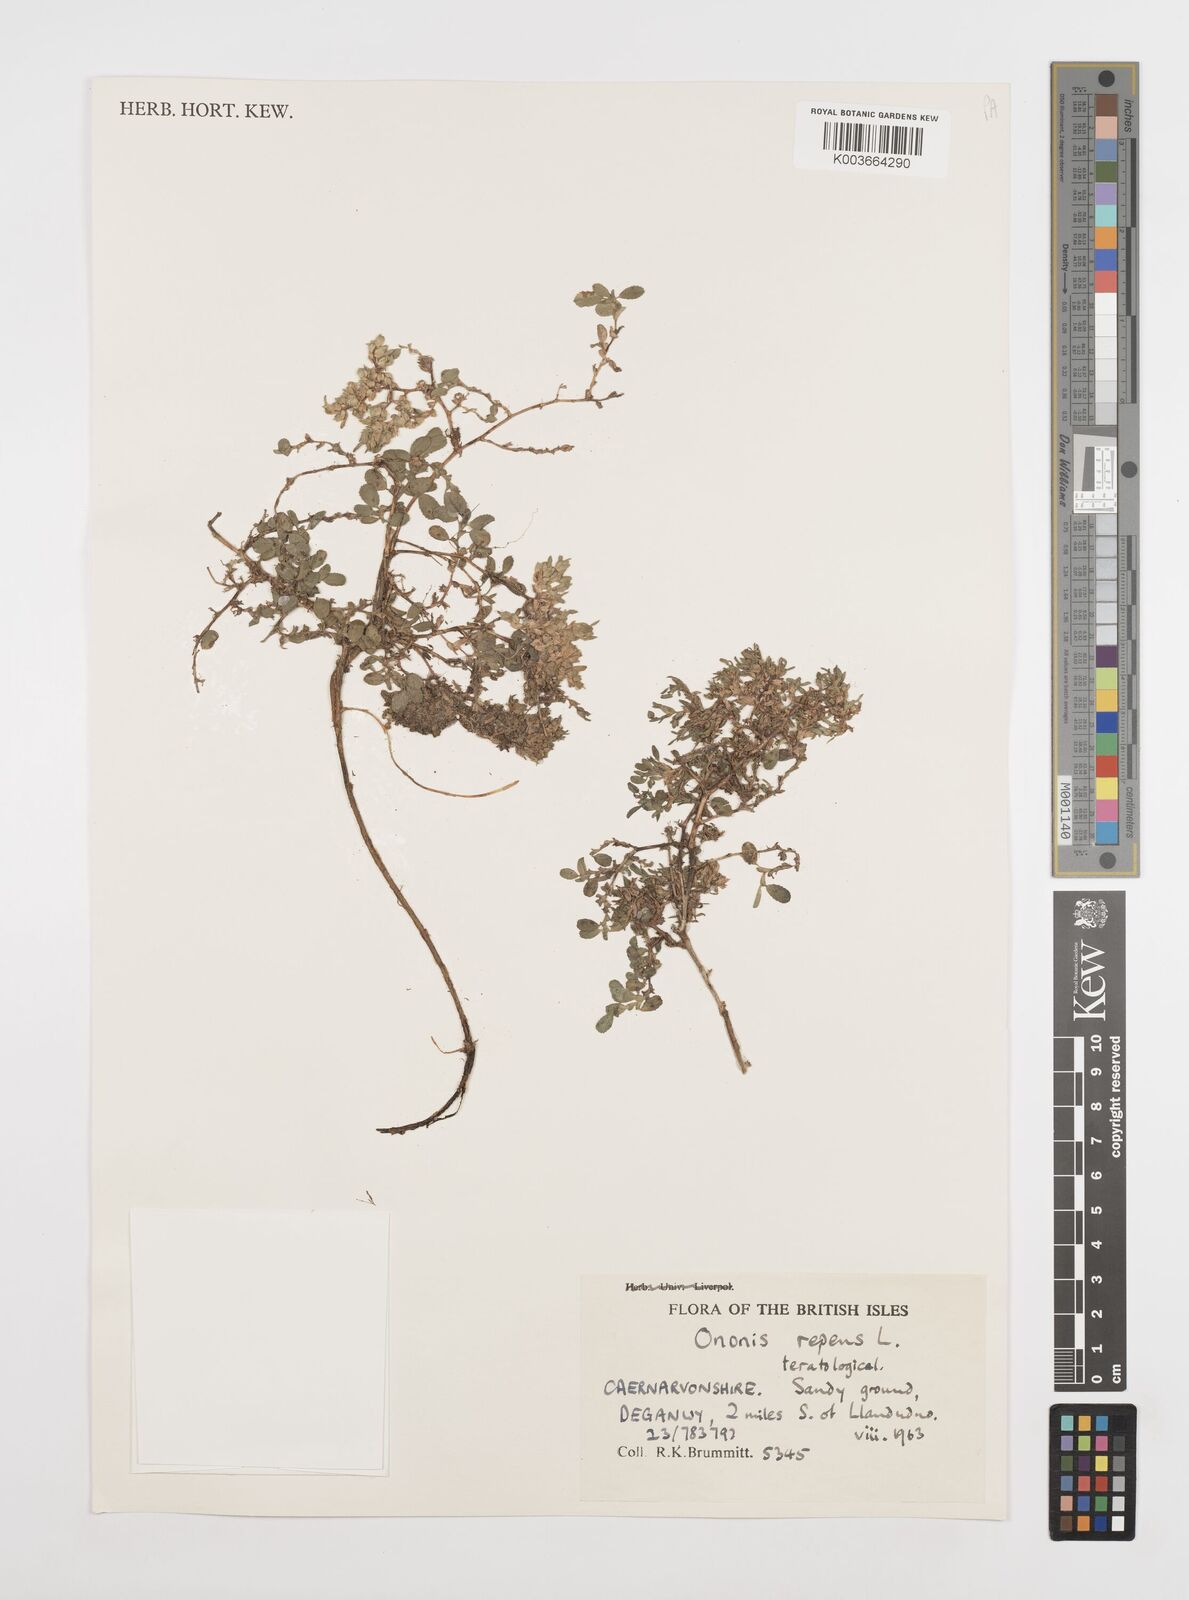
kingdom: Plantae
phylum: Tracheophyta
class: Magnoliopsida
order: Fabales
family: Fabaceae
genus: Ononis
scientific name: Ononis spinosa
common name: Spiny restharrow
